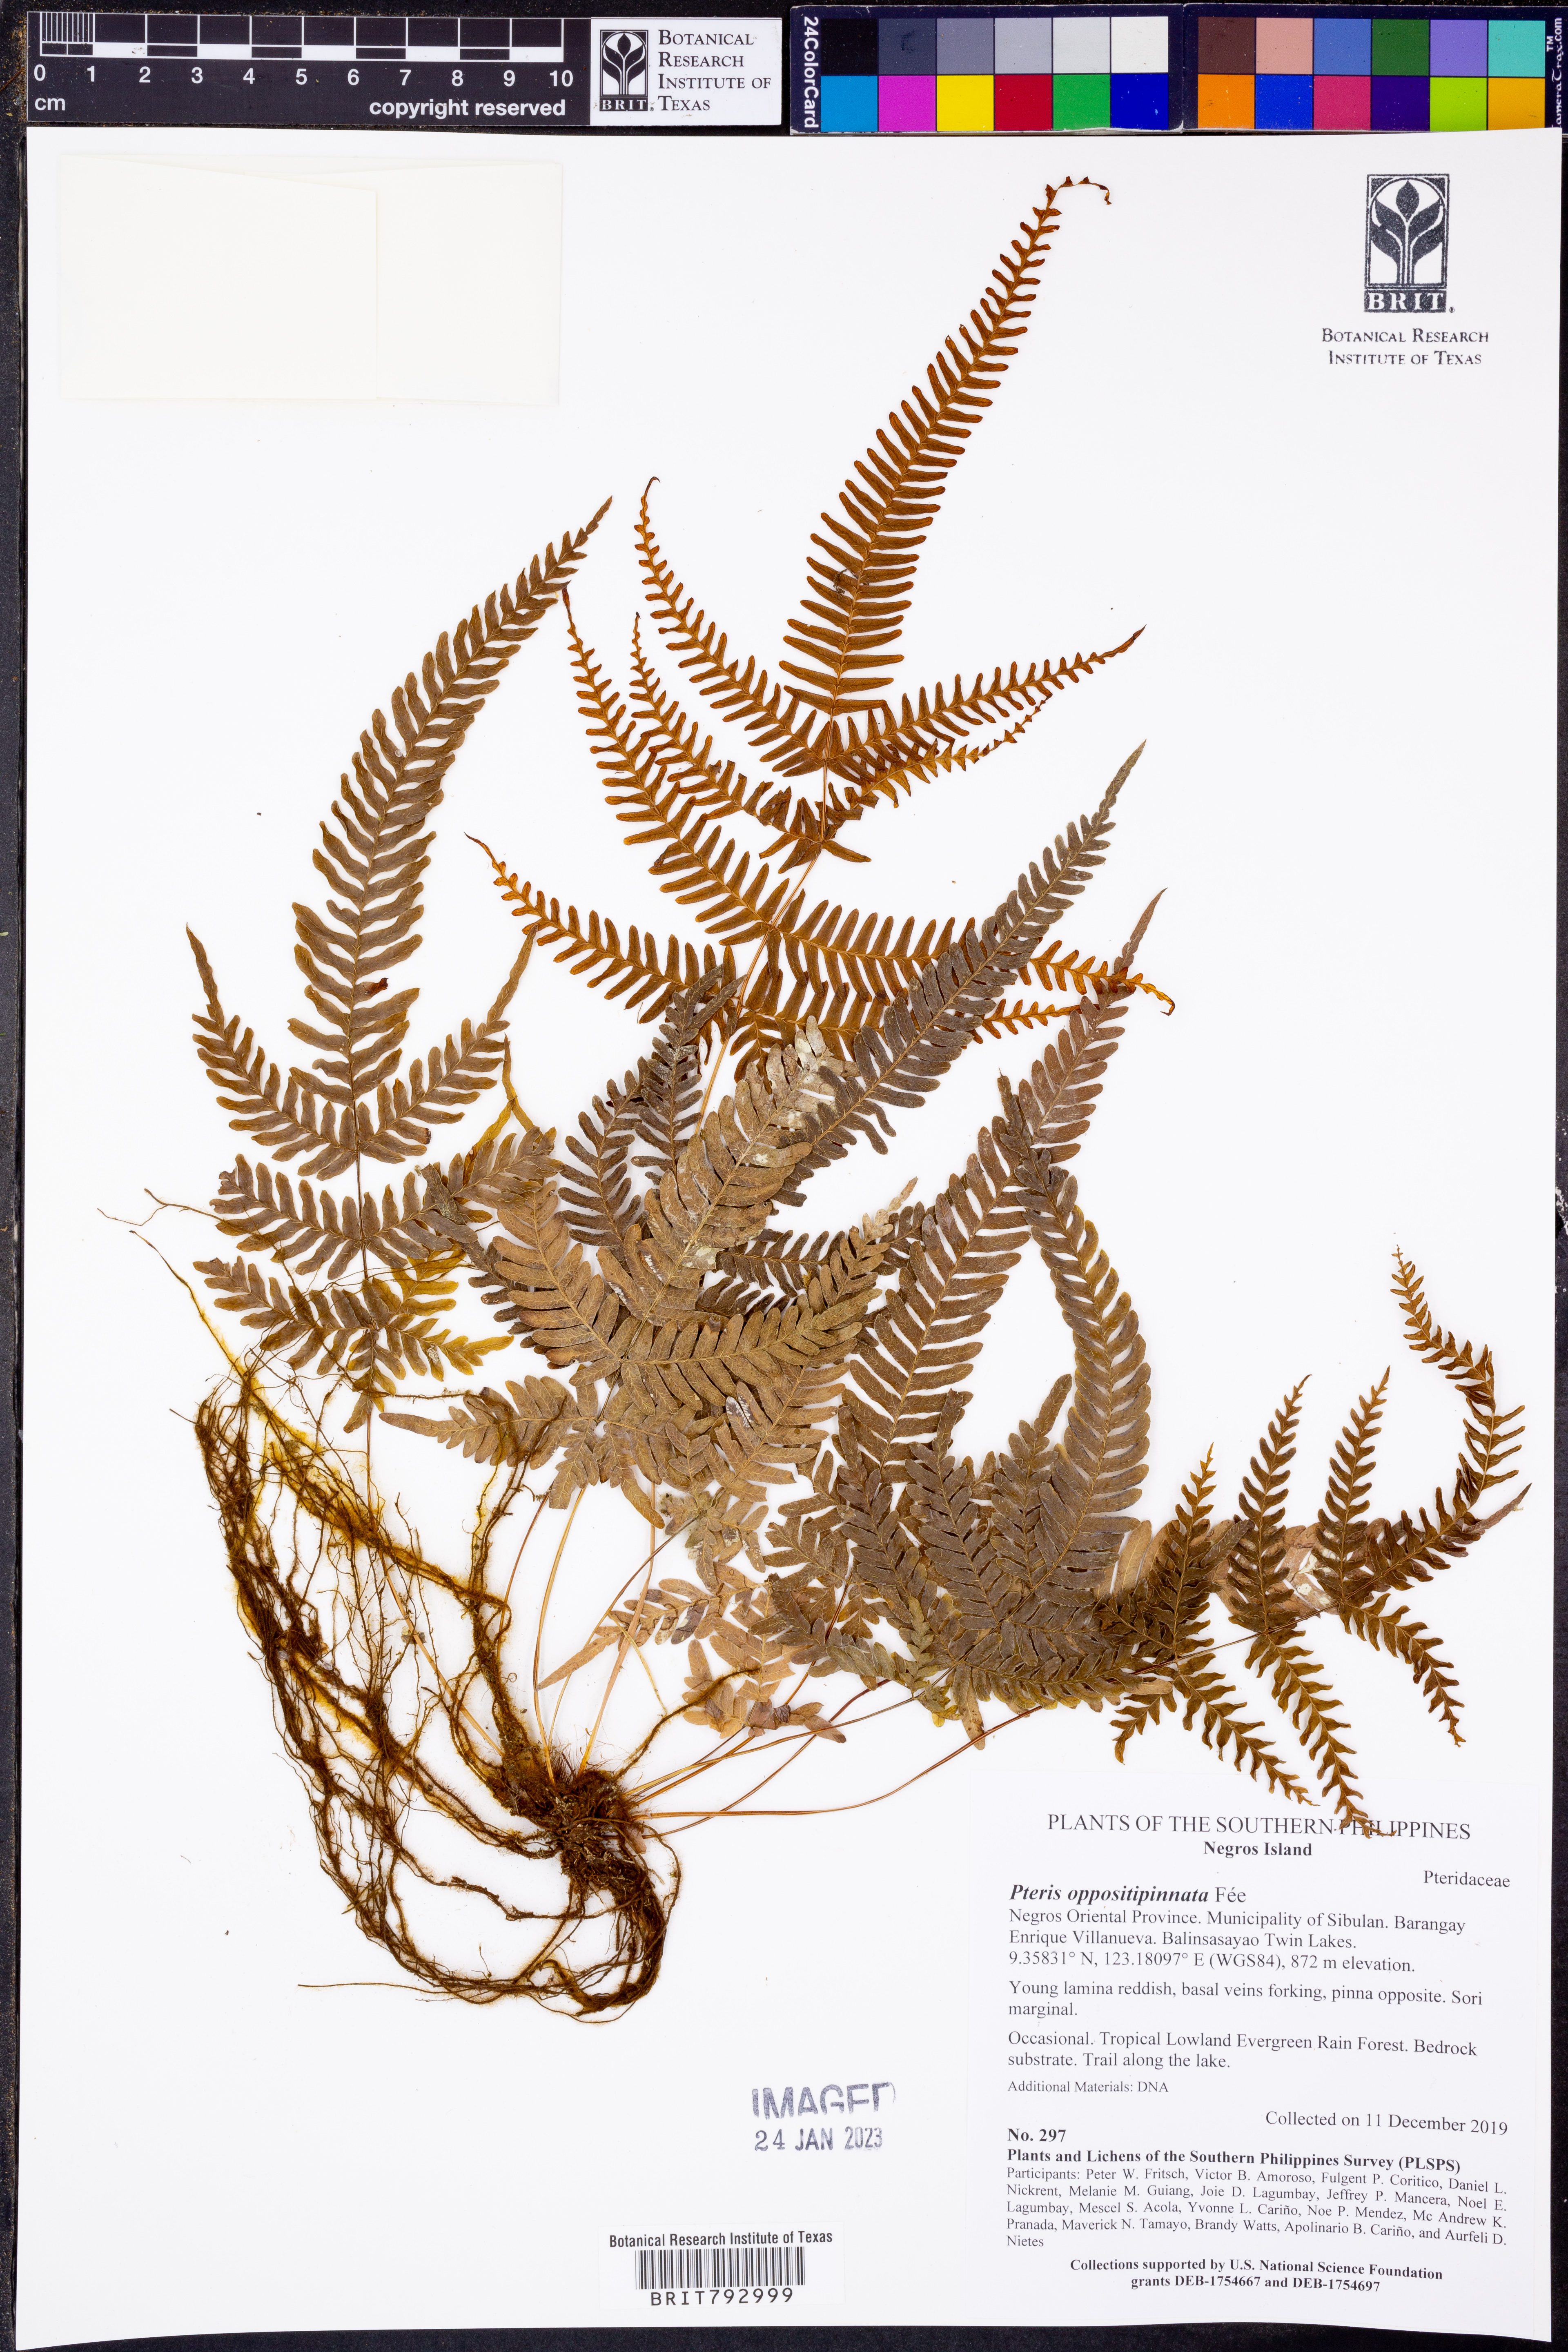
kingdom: Plantae
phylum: Tracheophyta
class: Polypodiopsida
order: Polypodiales
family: Pteridaceae
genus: Pteris
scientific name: Pteris oppositipinnata
